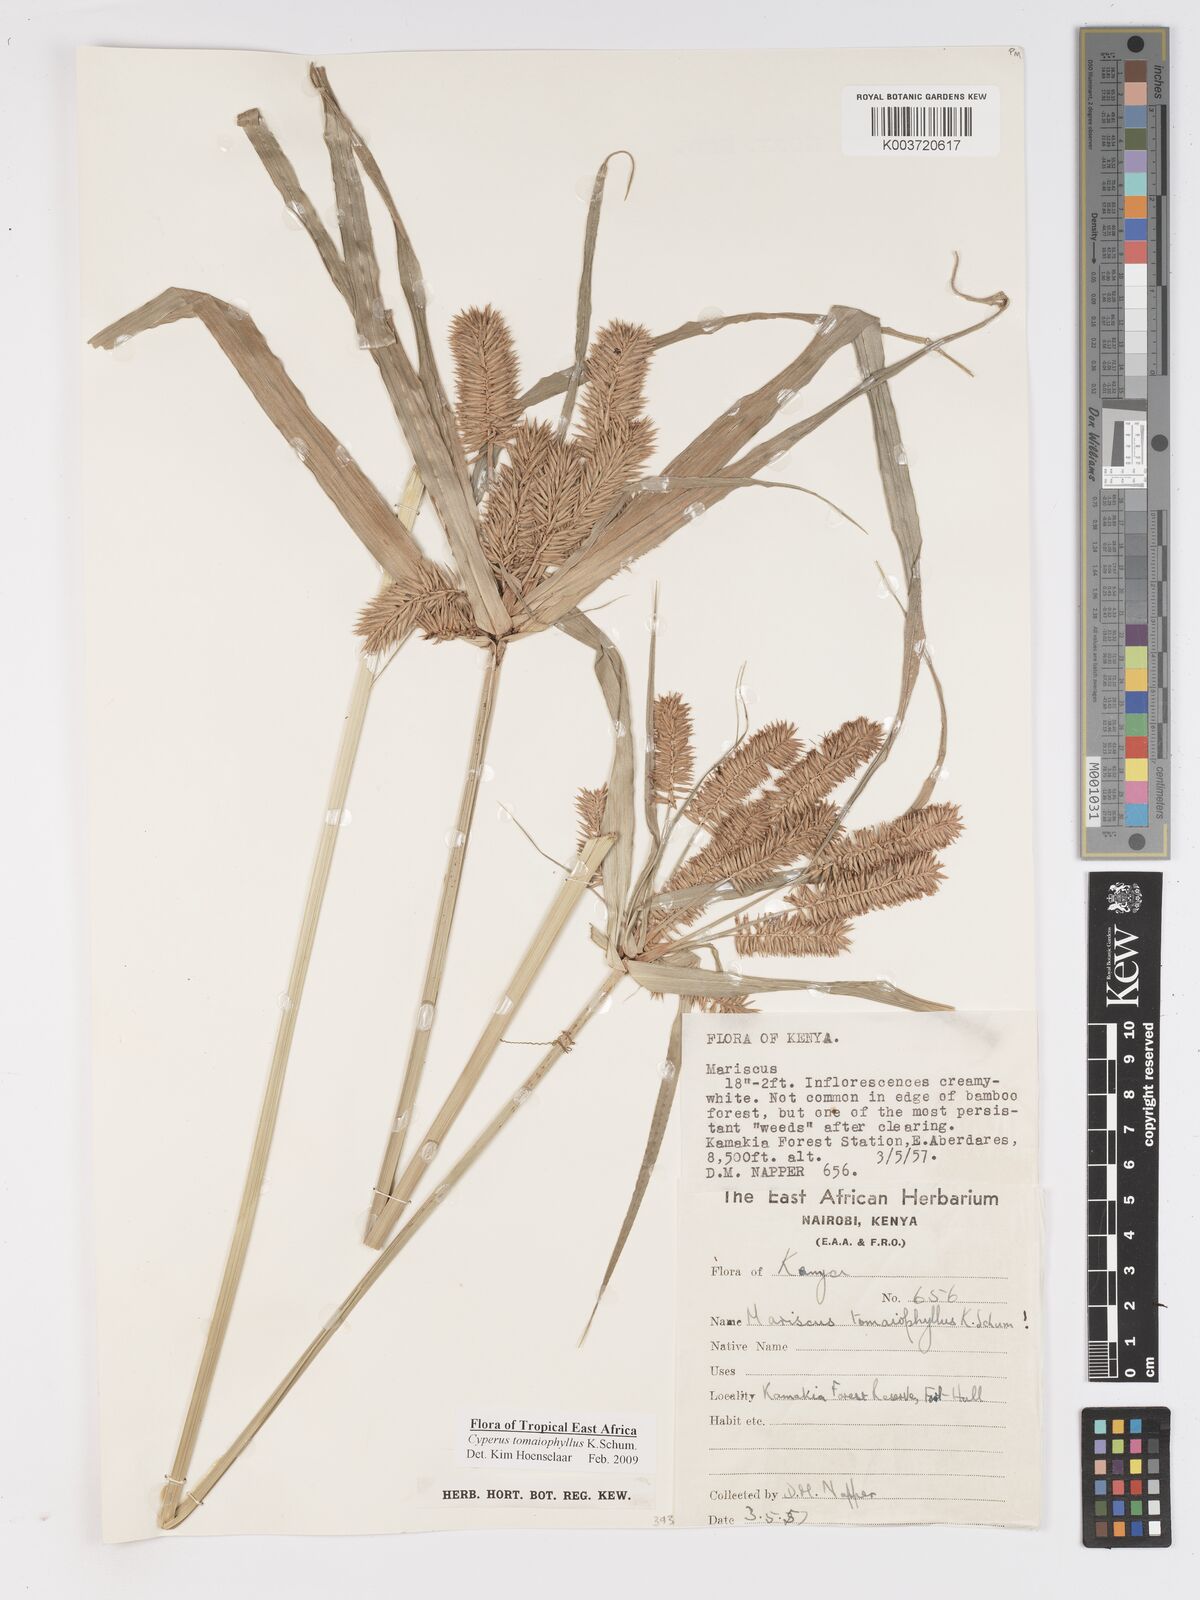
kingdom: Plantae
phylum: Tracheophyta
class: Liliopsida
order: Poales
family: Cyperaceae
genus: Cyperus
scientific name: Cyperus tomaiophyllus
